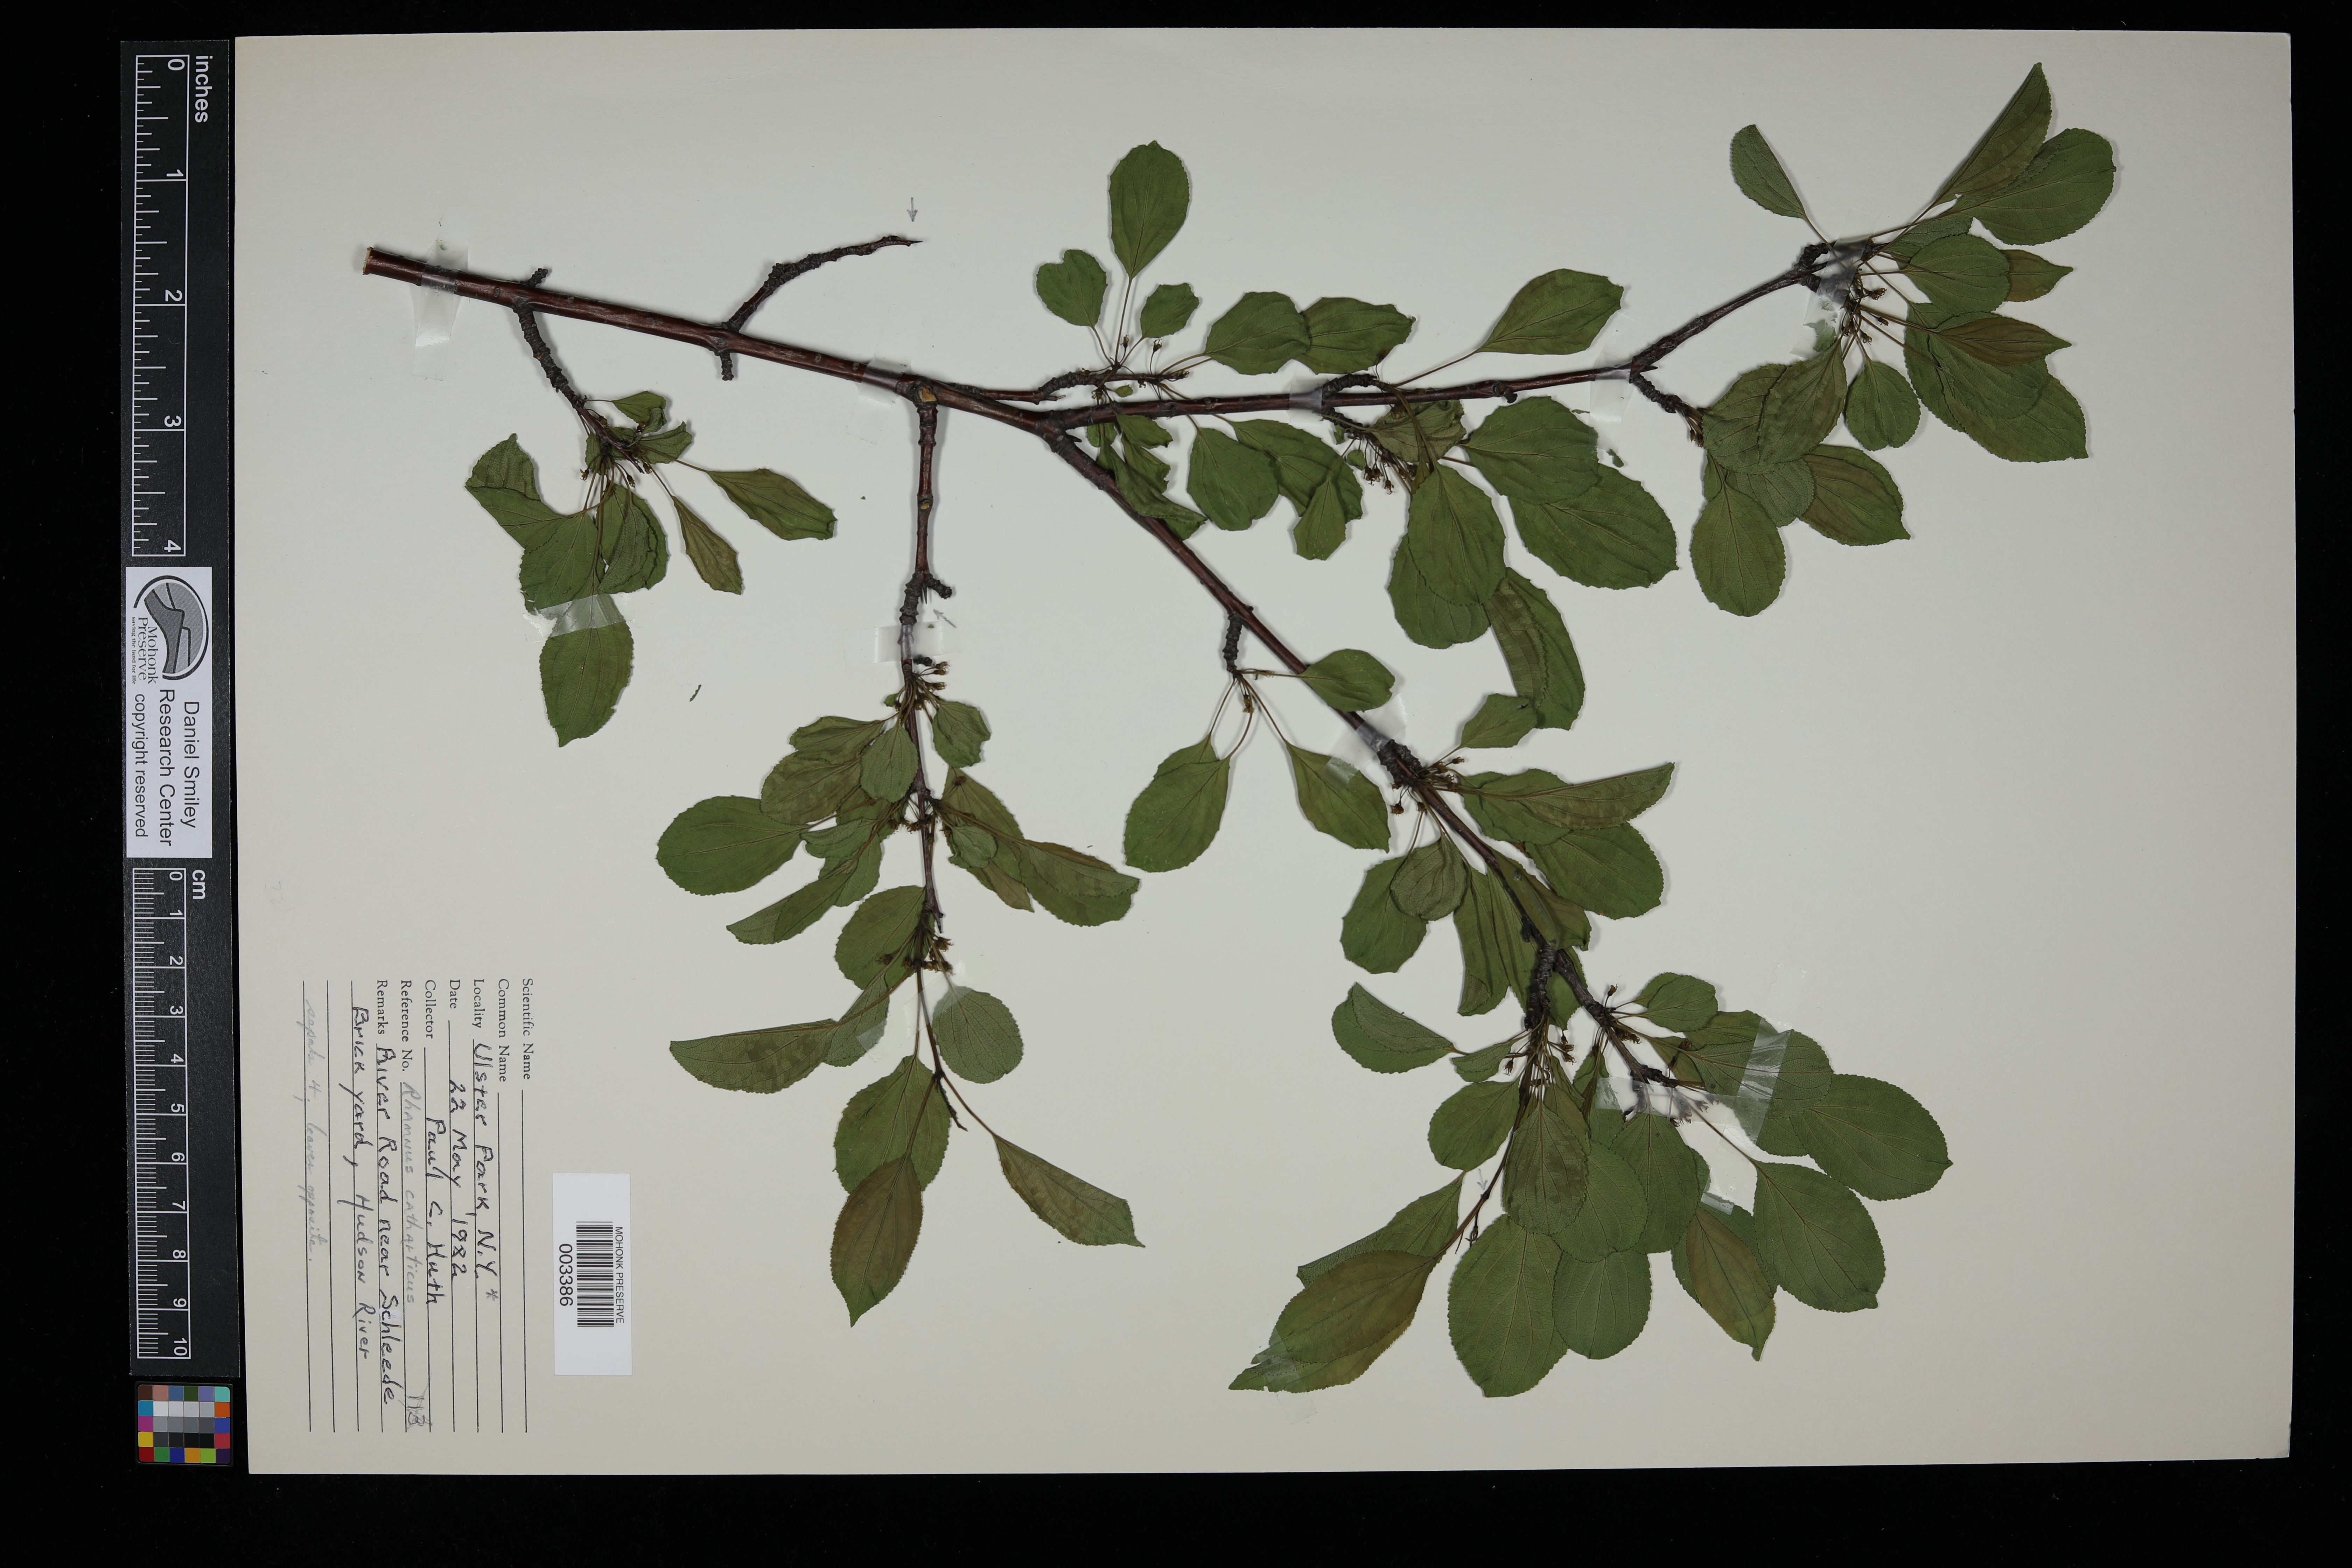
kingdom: Plantae
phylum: Tracheophyta
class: Magnoliopsida
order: Rosales
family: Rhamnaceae
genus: Rhamnus
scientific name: Rhamnus cathartica
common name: Common buckthorn
